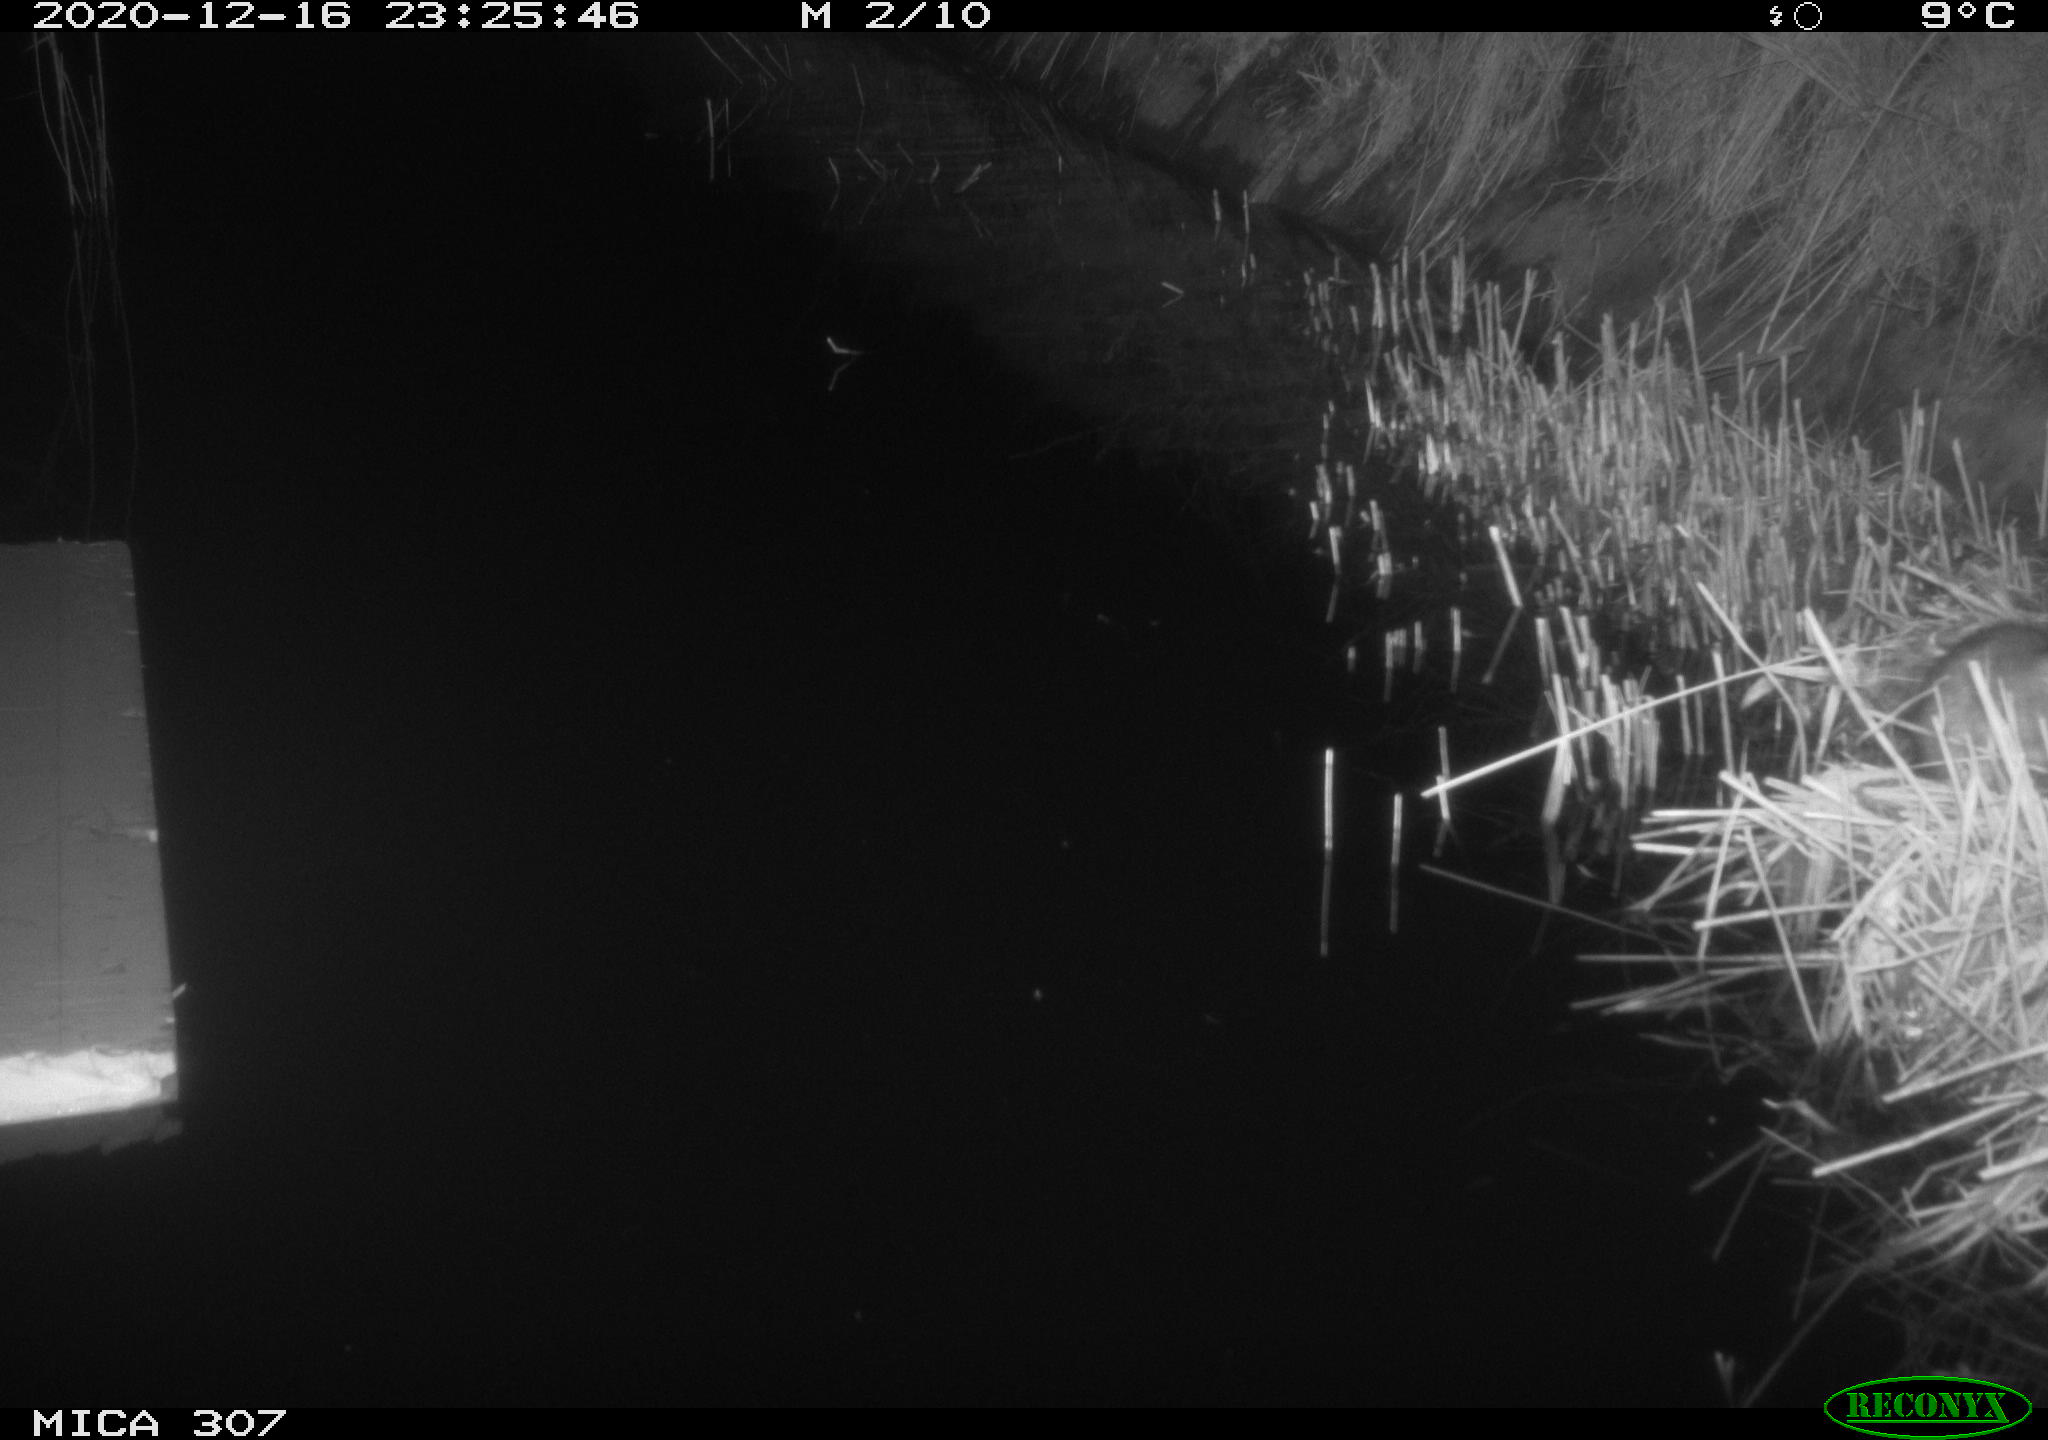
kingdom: Animalia
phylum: Chordata
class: Mammalia
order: Rodentia
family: Muridae
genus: Rattus
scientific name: Rattus norvegicus
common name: Brown rat
